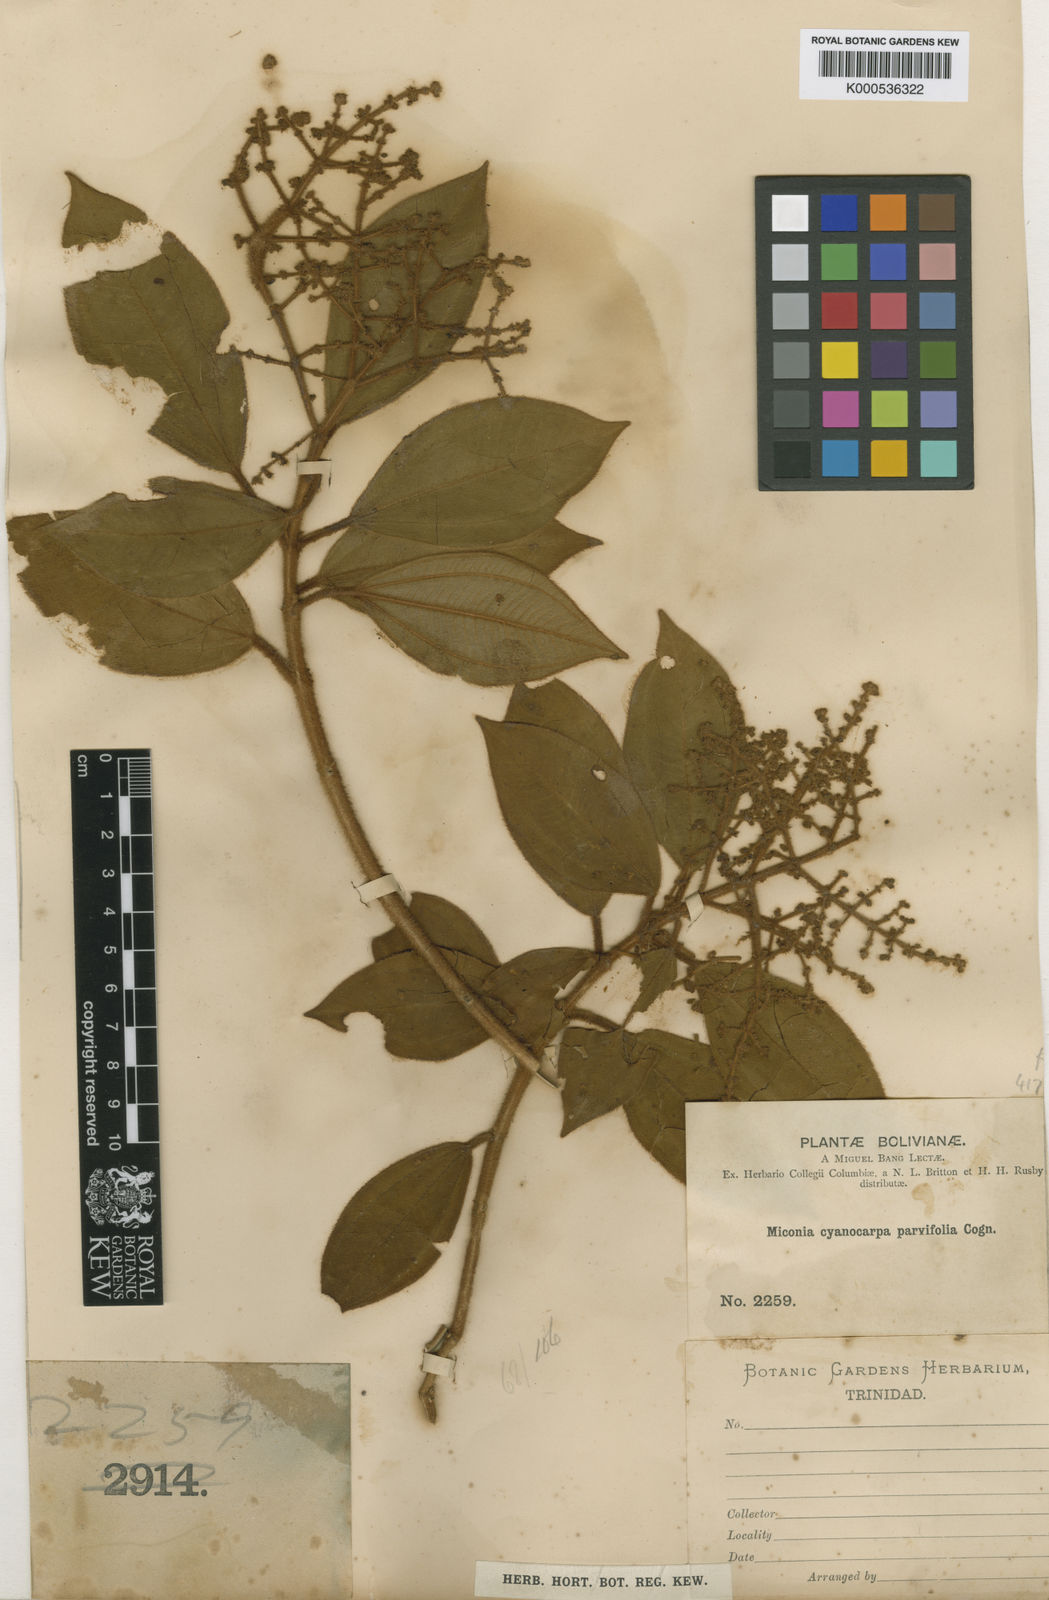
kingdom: Plantae
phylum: Tracheophyta
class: Magnoliopsida
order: Myrtales
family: Melastomataceae
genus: Miconia
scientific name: Miconia cyanocarpa
